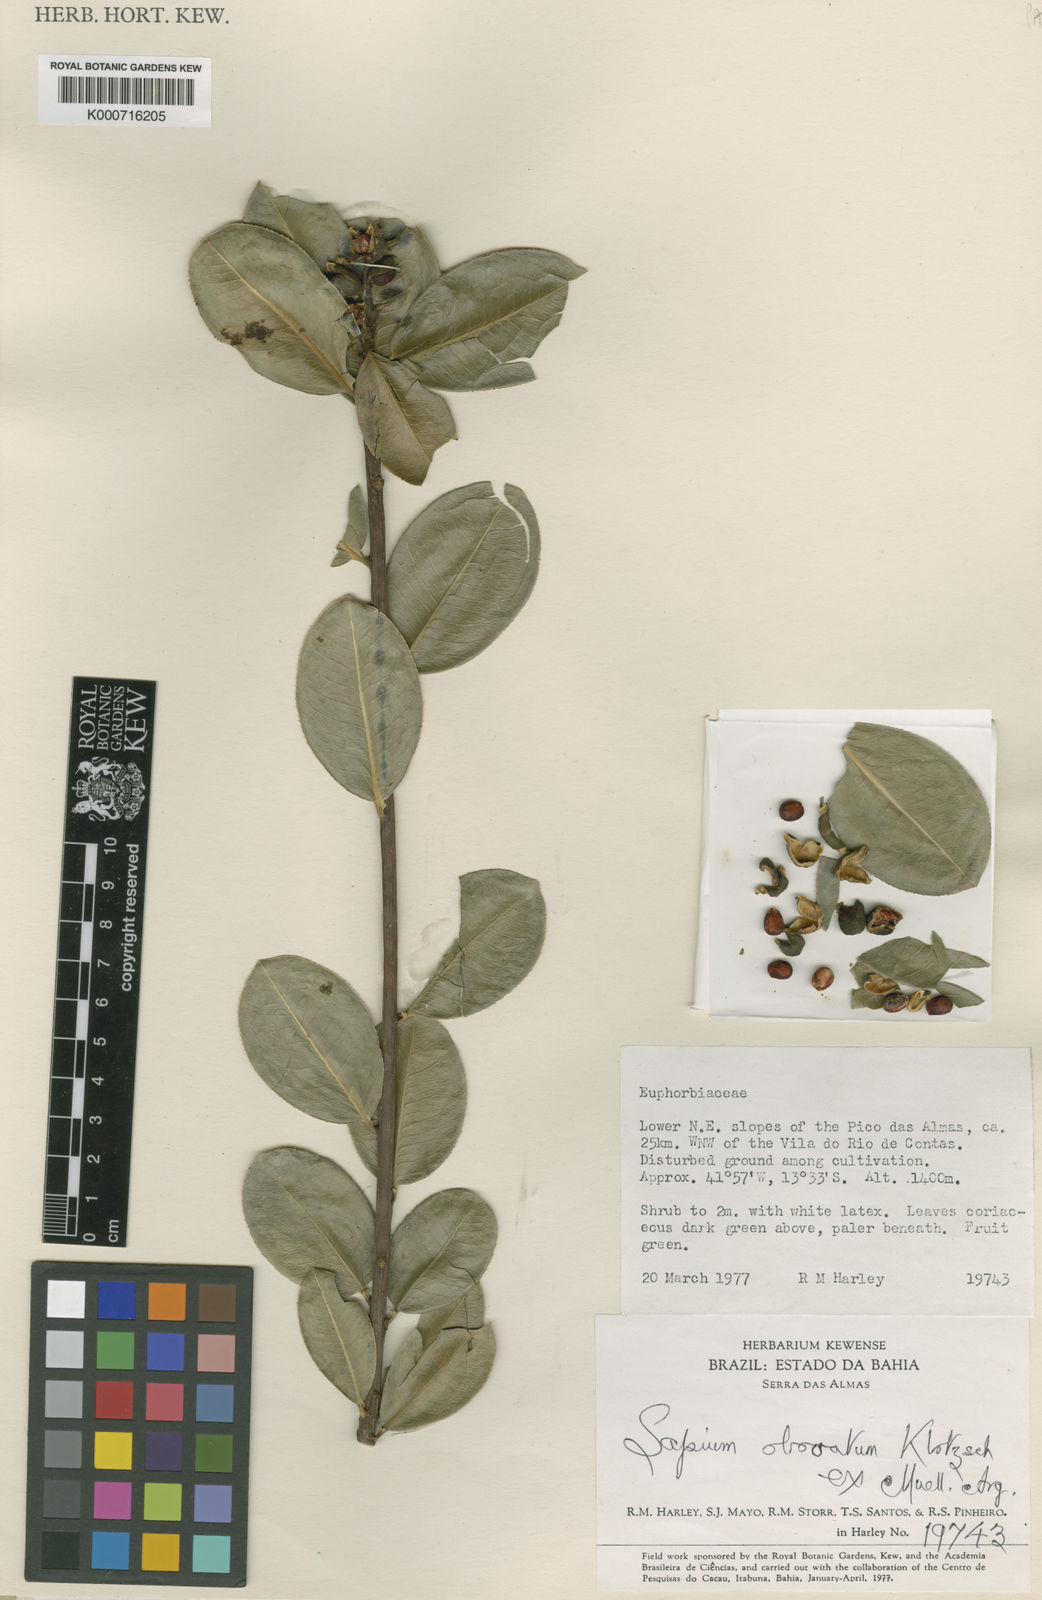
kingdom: Plantae
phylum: Tracheophyta
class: Magnoliopsida
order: Malpighiales
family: Euphorbiaceae
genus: Sapium
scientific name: Sapium
